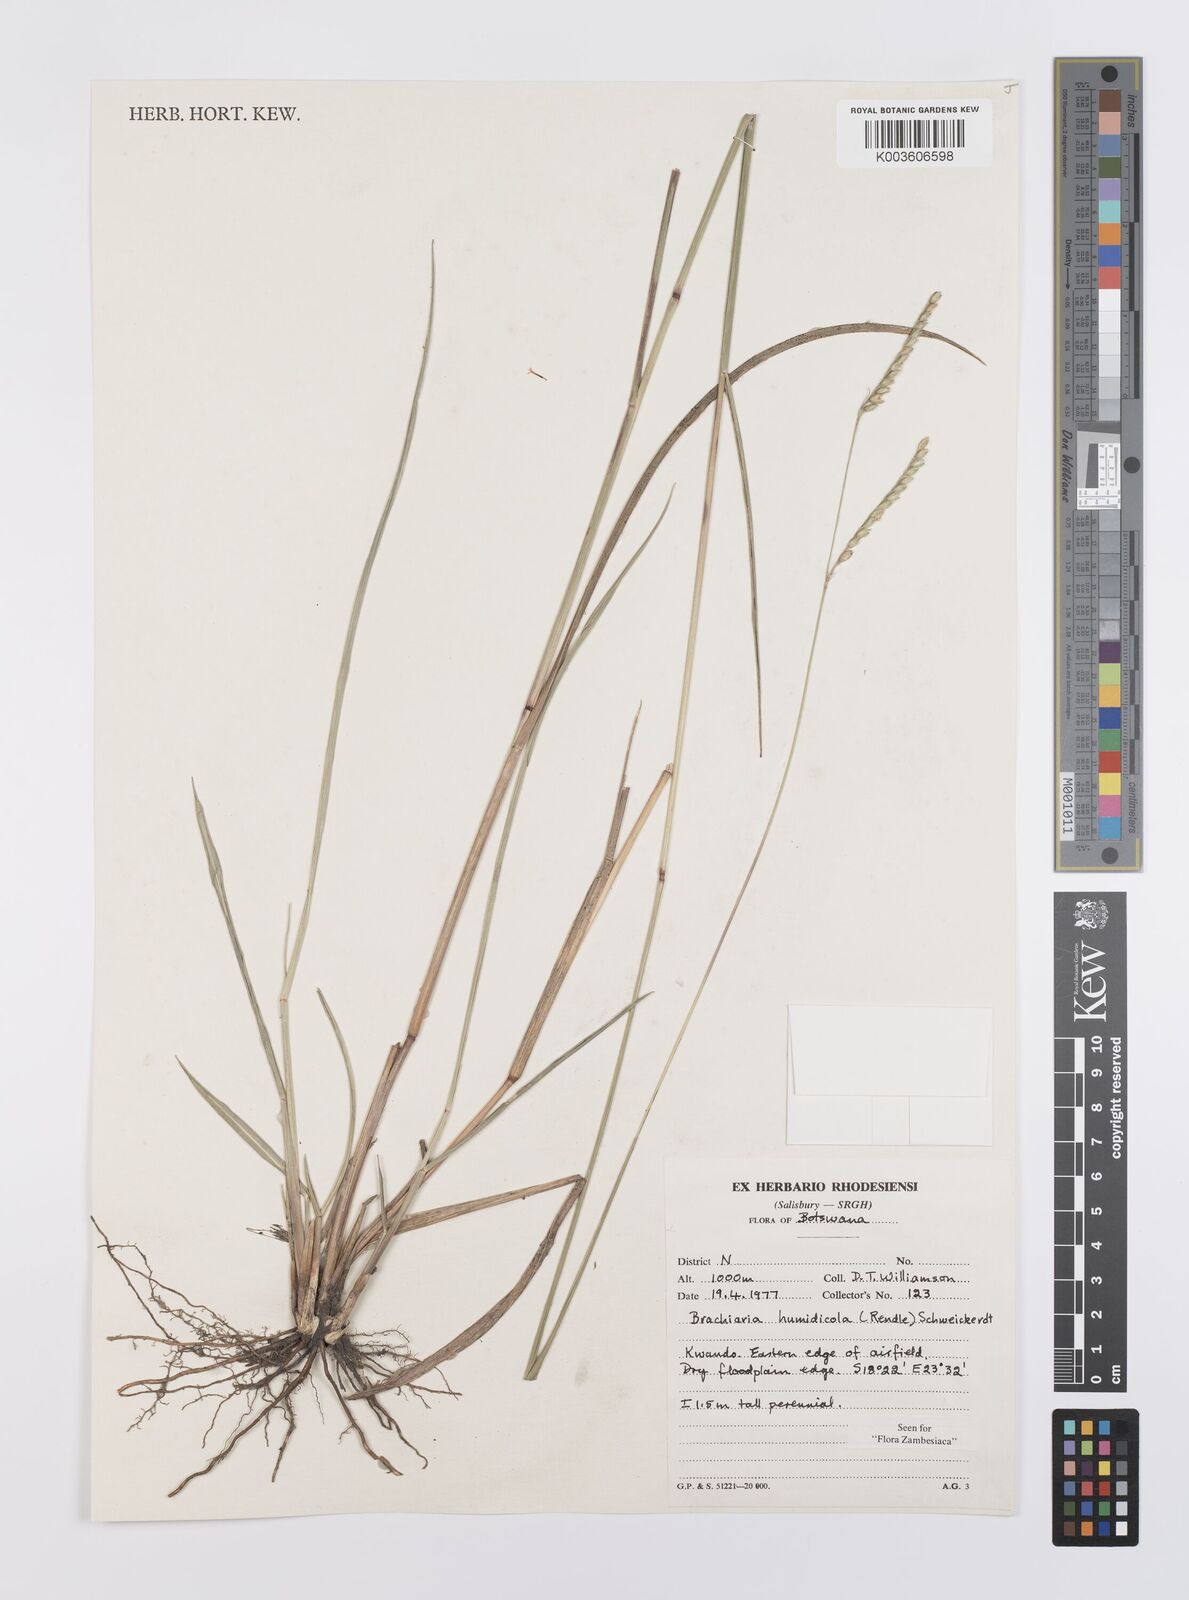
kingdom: Plantae
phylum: Tracheophyta
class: Liliopsida
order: Poales
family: Poaceae
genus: Urochloa
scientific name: Urochloa dictyoneura
